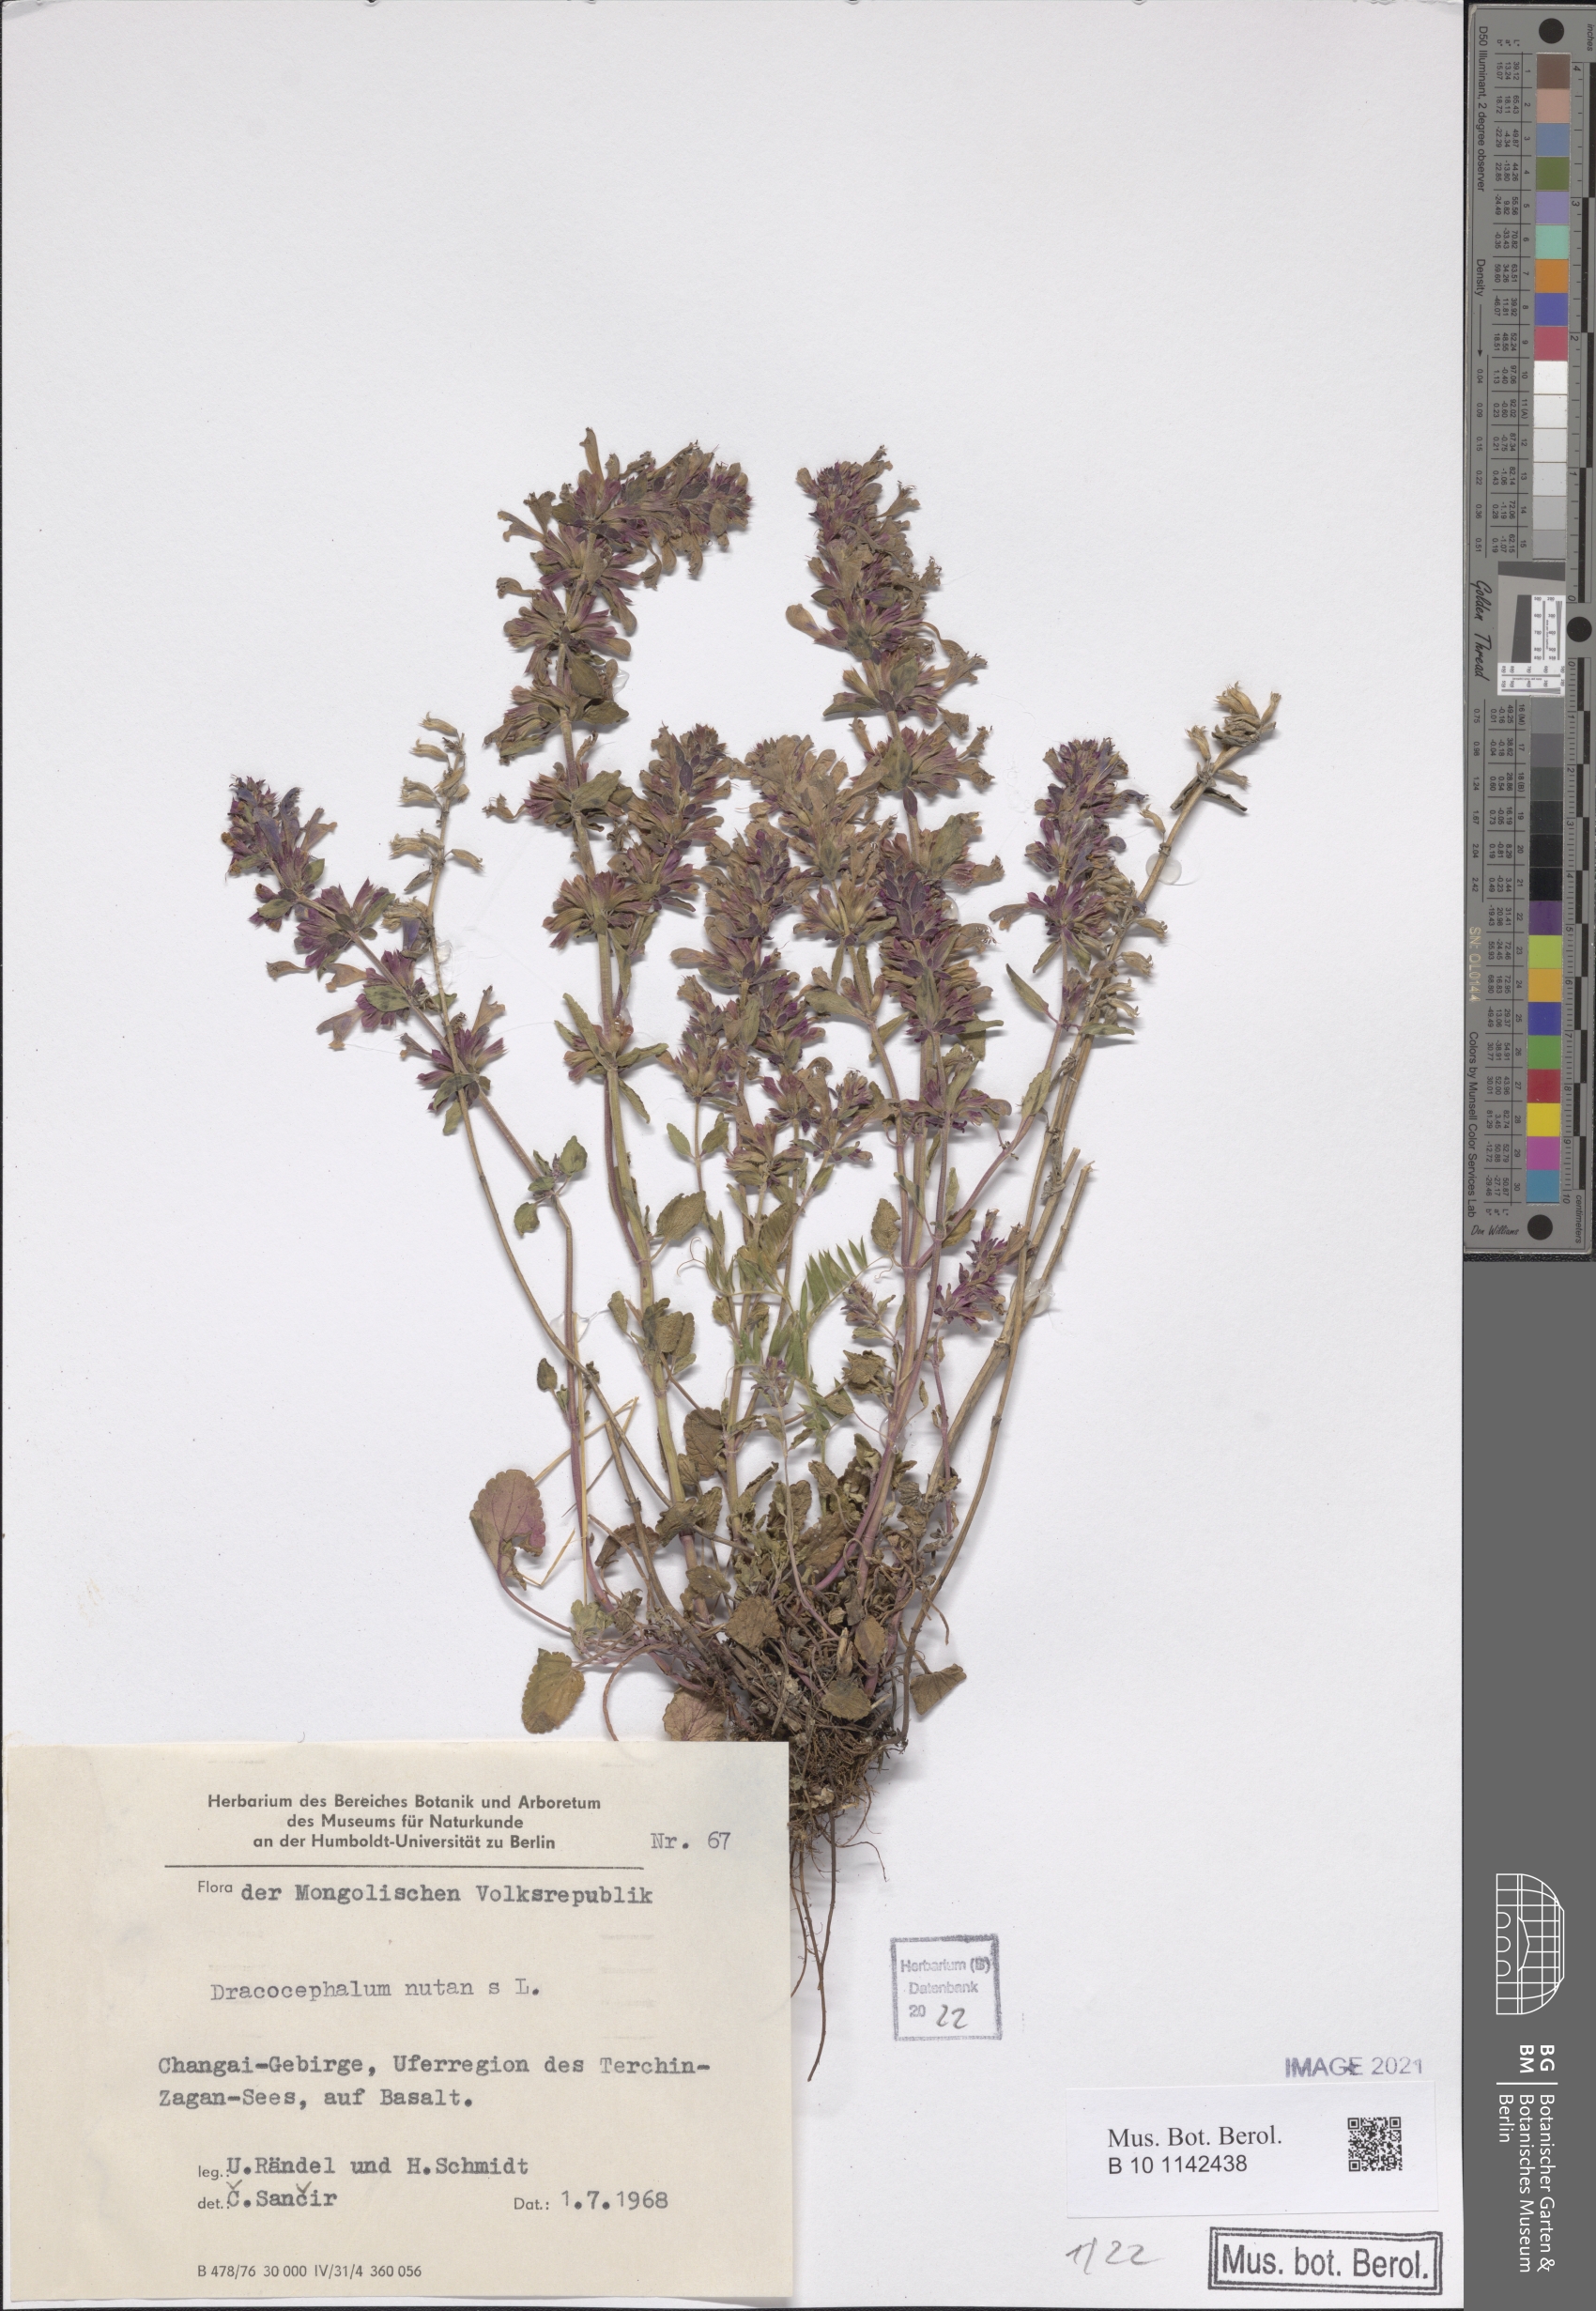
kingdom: Plantae
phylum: Tracheophyta
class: Magnoliopsida
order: Lamiales
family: Lamiaceae
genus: Dracocephalum
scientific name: Dracocephalum nutans
